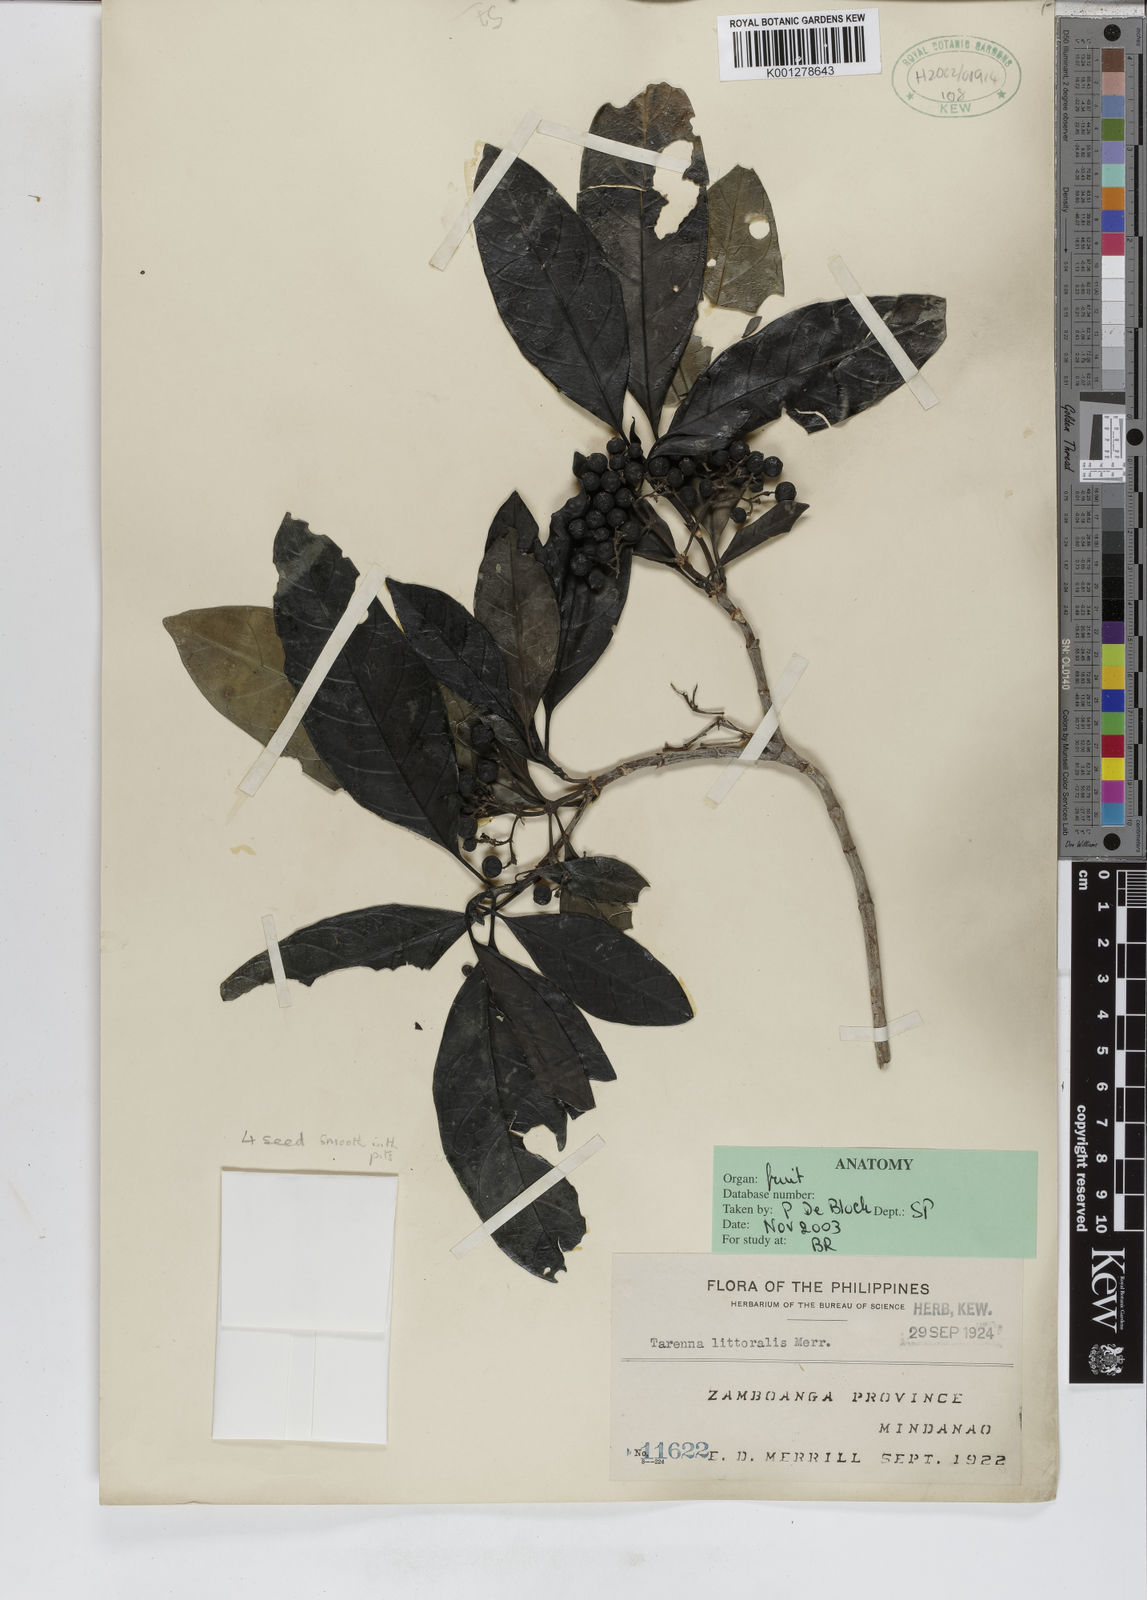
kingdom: Plantae
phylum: Tracheophyta
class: Magnoliopsida
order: Gentianales
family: Rubiaceae
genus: Coptosperma
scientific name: Coptosperma littorale
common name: Dune butterspoon
